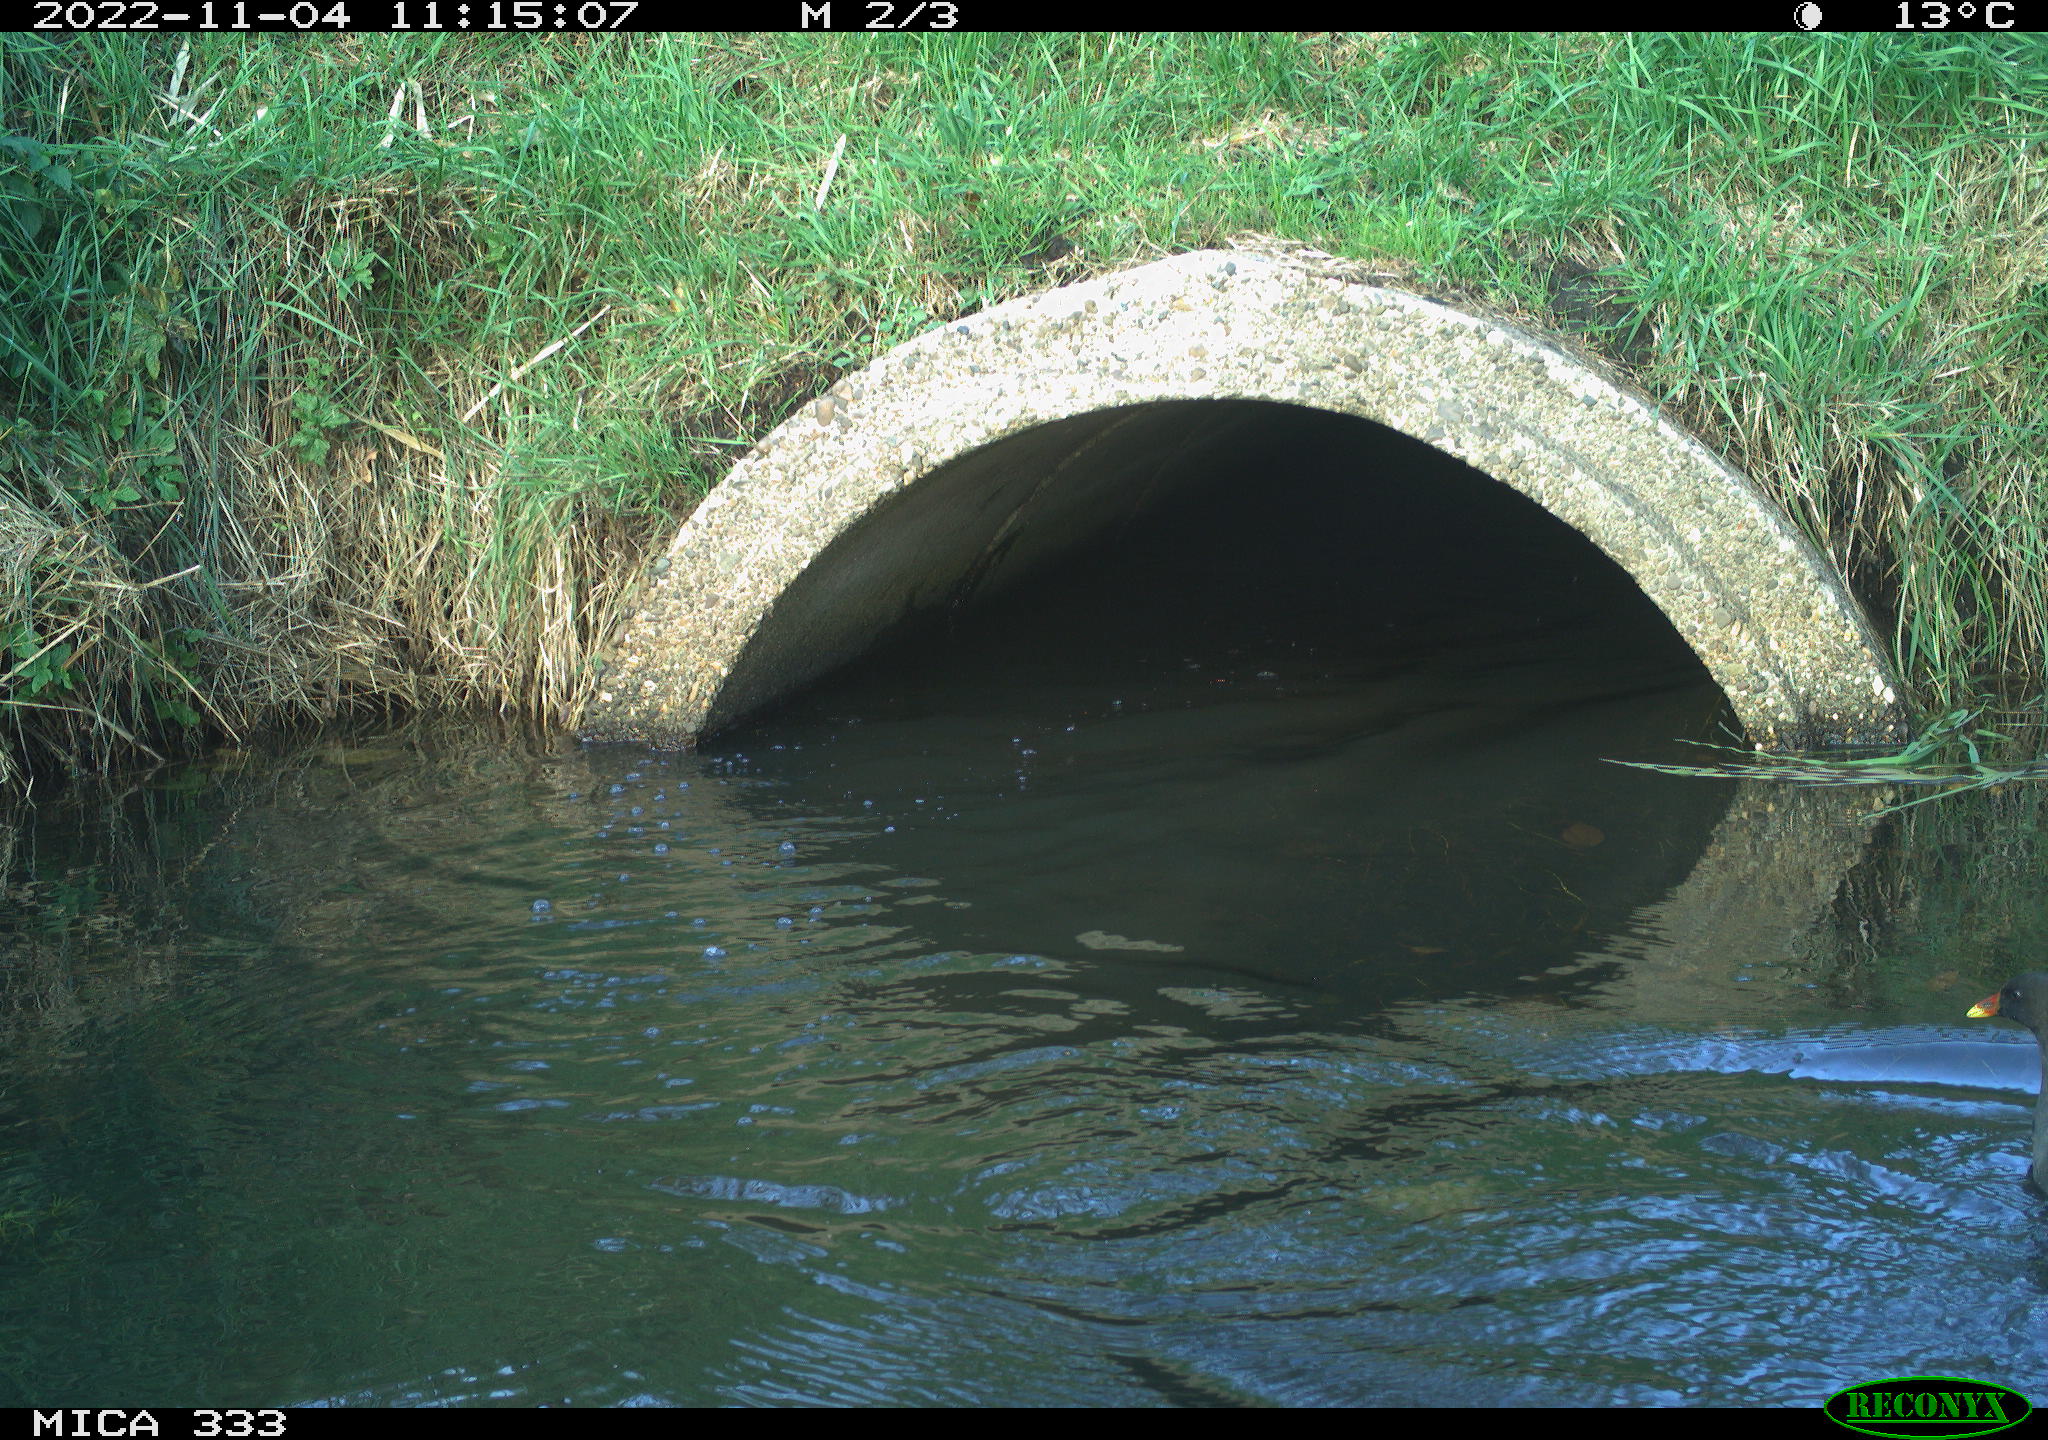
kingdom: Animalia
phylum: Chordata
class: Aves
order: Gruiformes
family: Rallidae
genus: Gallinula
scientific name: Gallinula chloropus
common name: Common moorhen
